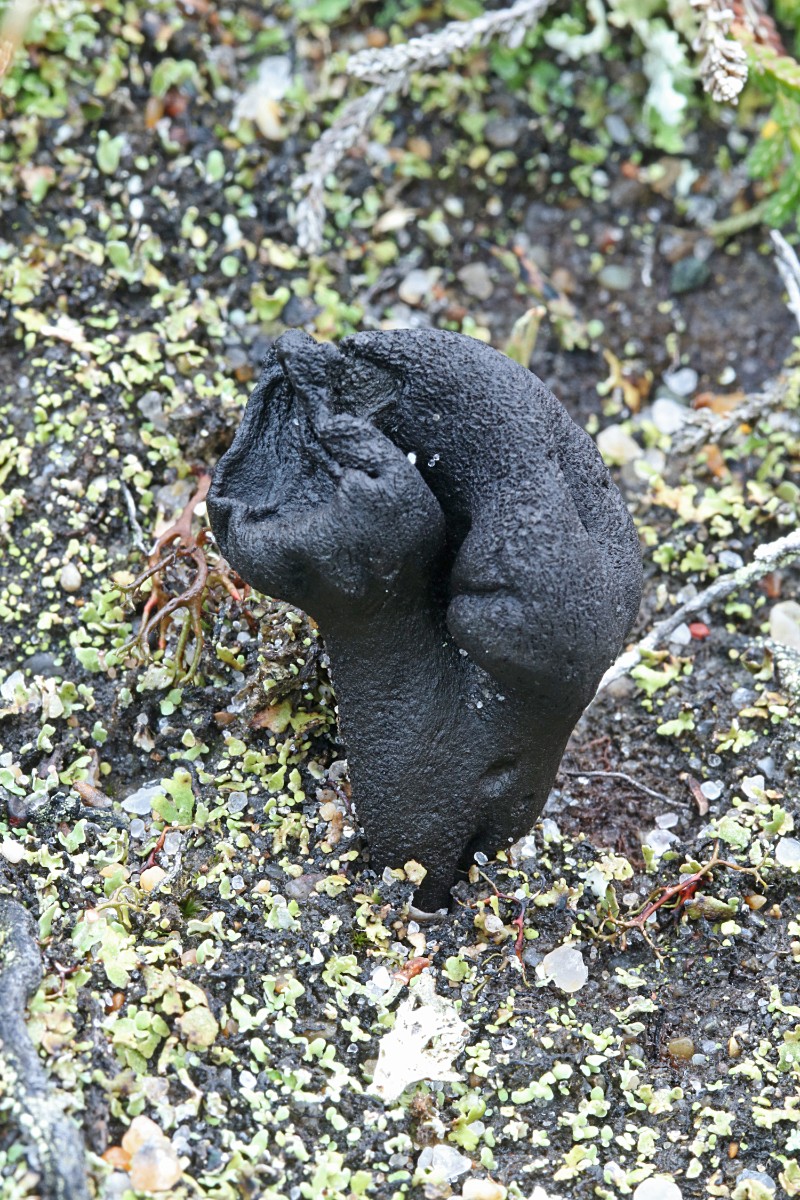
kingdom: Fungi
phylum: Ascomycota
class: Geoglossomycetes
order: Geoglossales
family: Geoglossaceae
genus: Sabuloglossum
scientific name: Sabuloglossum arenarium
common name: klit-jordtunge
